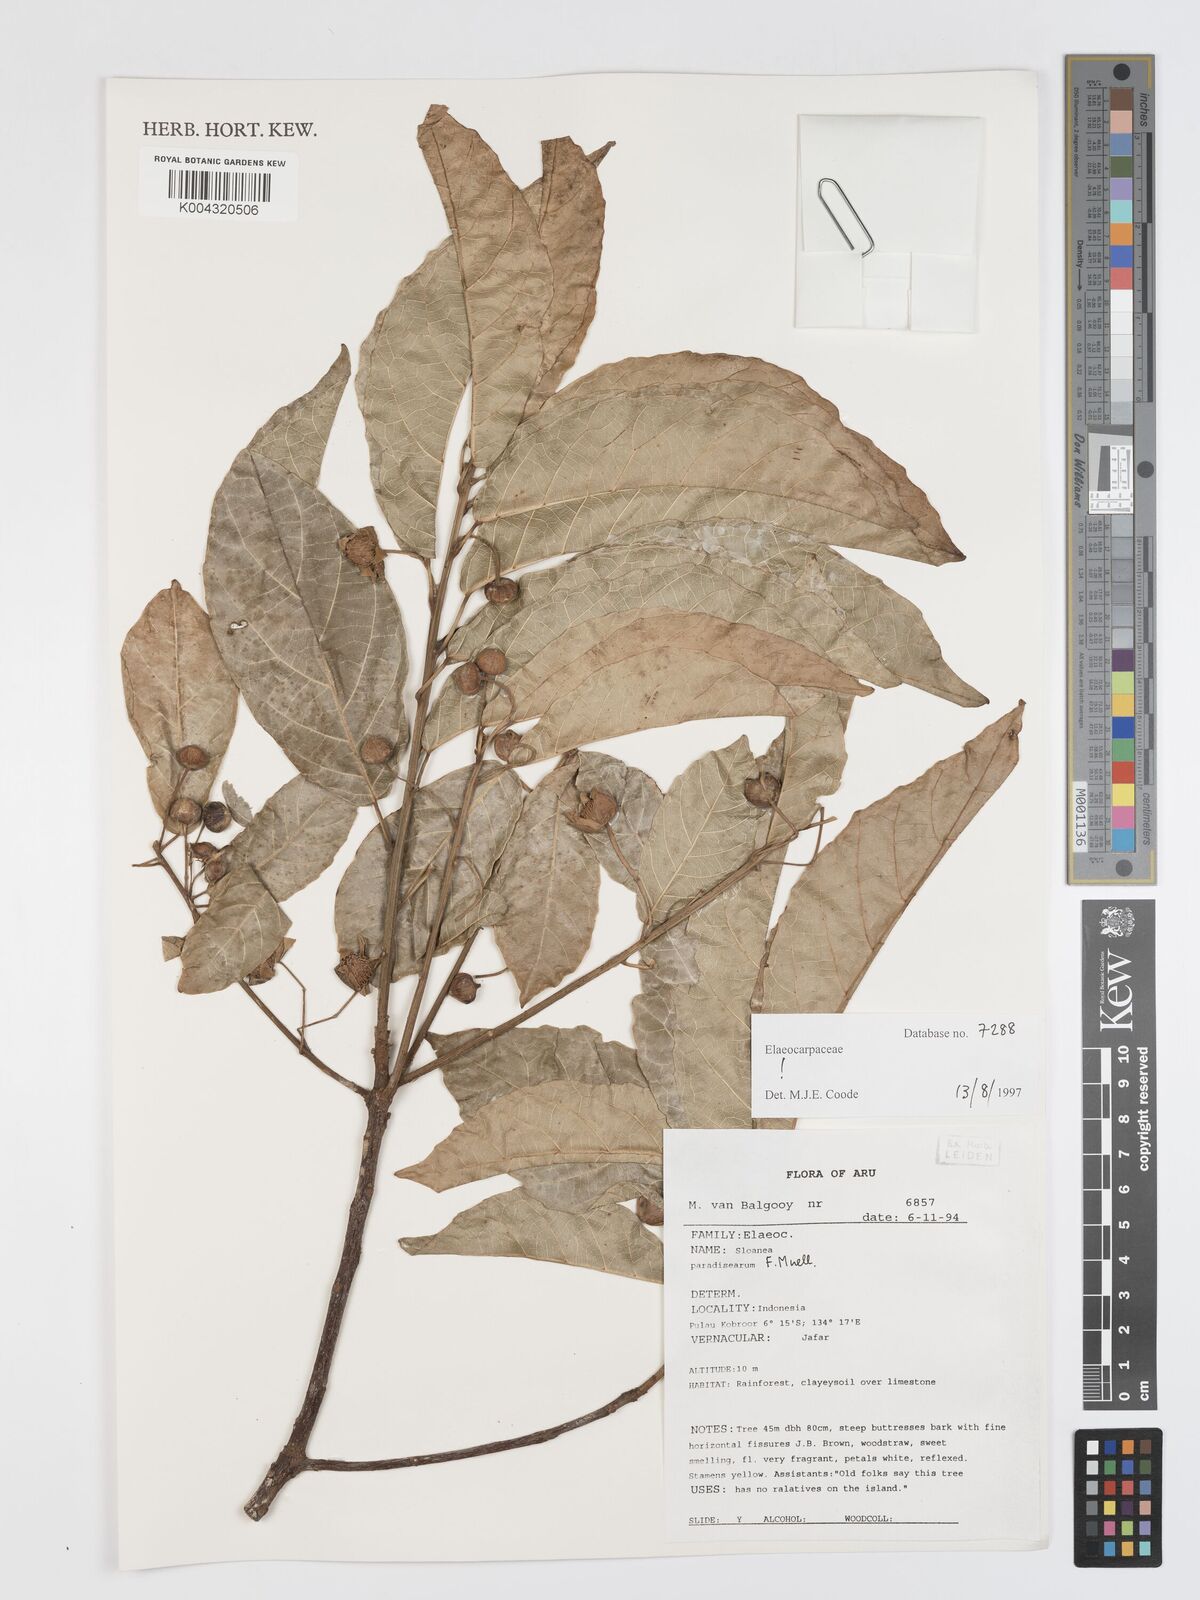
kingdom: Plantae
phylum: Tracheophyta
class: Magnoliopsida
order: Oxalidales
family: Elaeocarpaceae
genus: Sloanea
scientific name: Sloanea paradisearum
